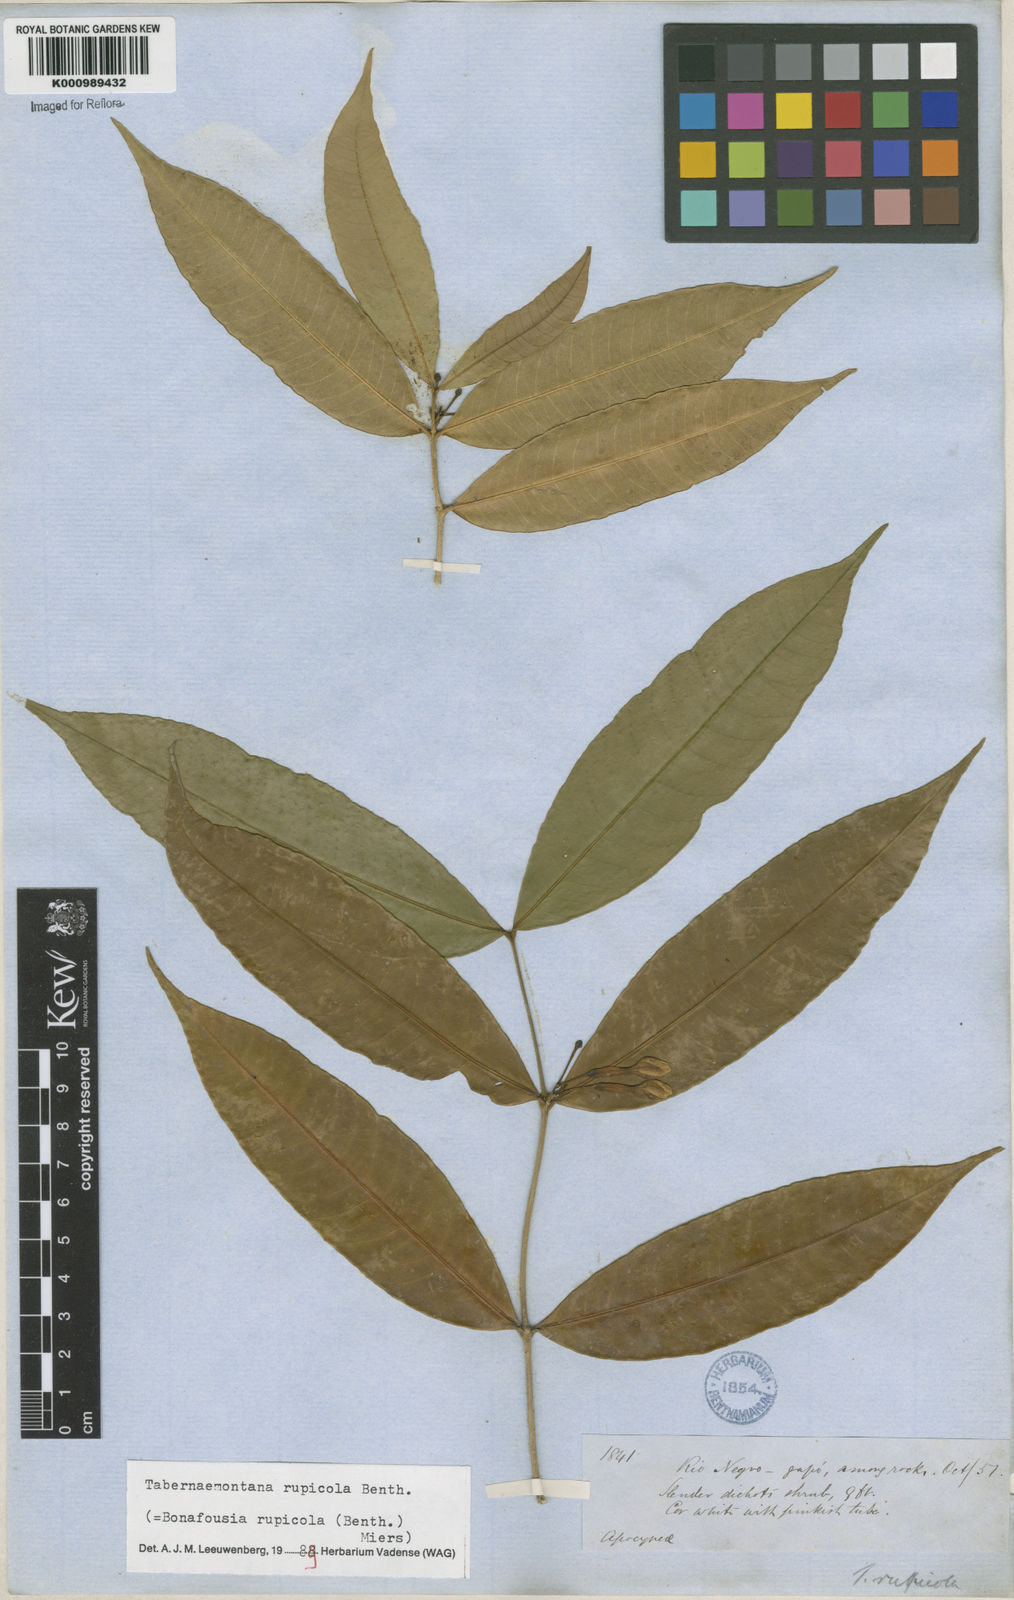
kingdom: Plantae
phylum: Tracheophyta
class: Magnoliopsida
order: Gentianales
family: Apocynaceae
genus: Tabernaemontana
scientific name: Tabernaemontana rupicola
